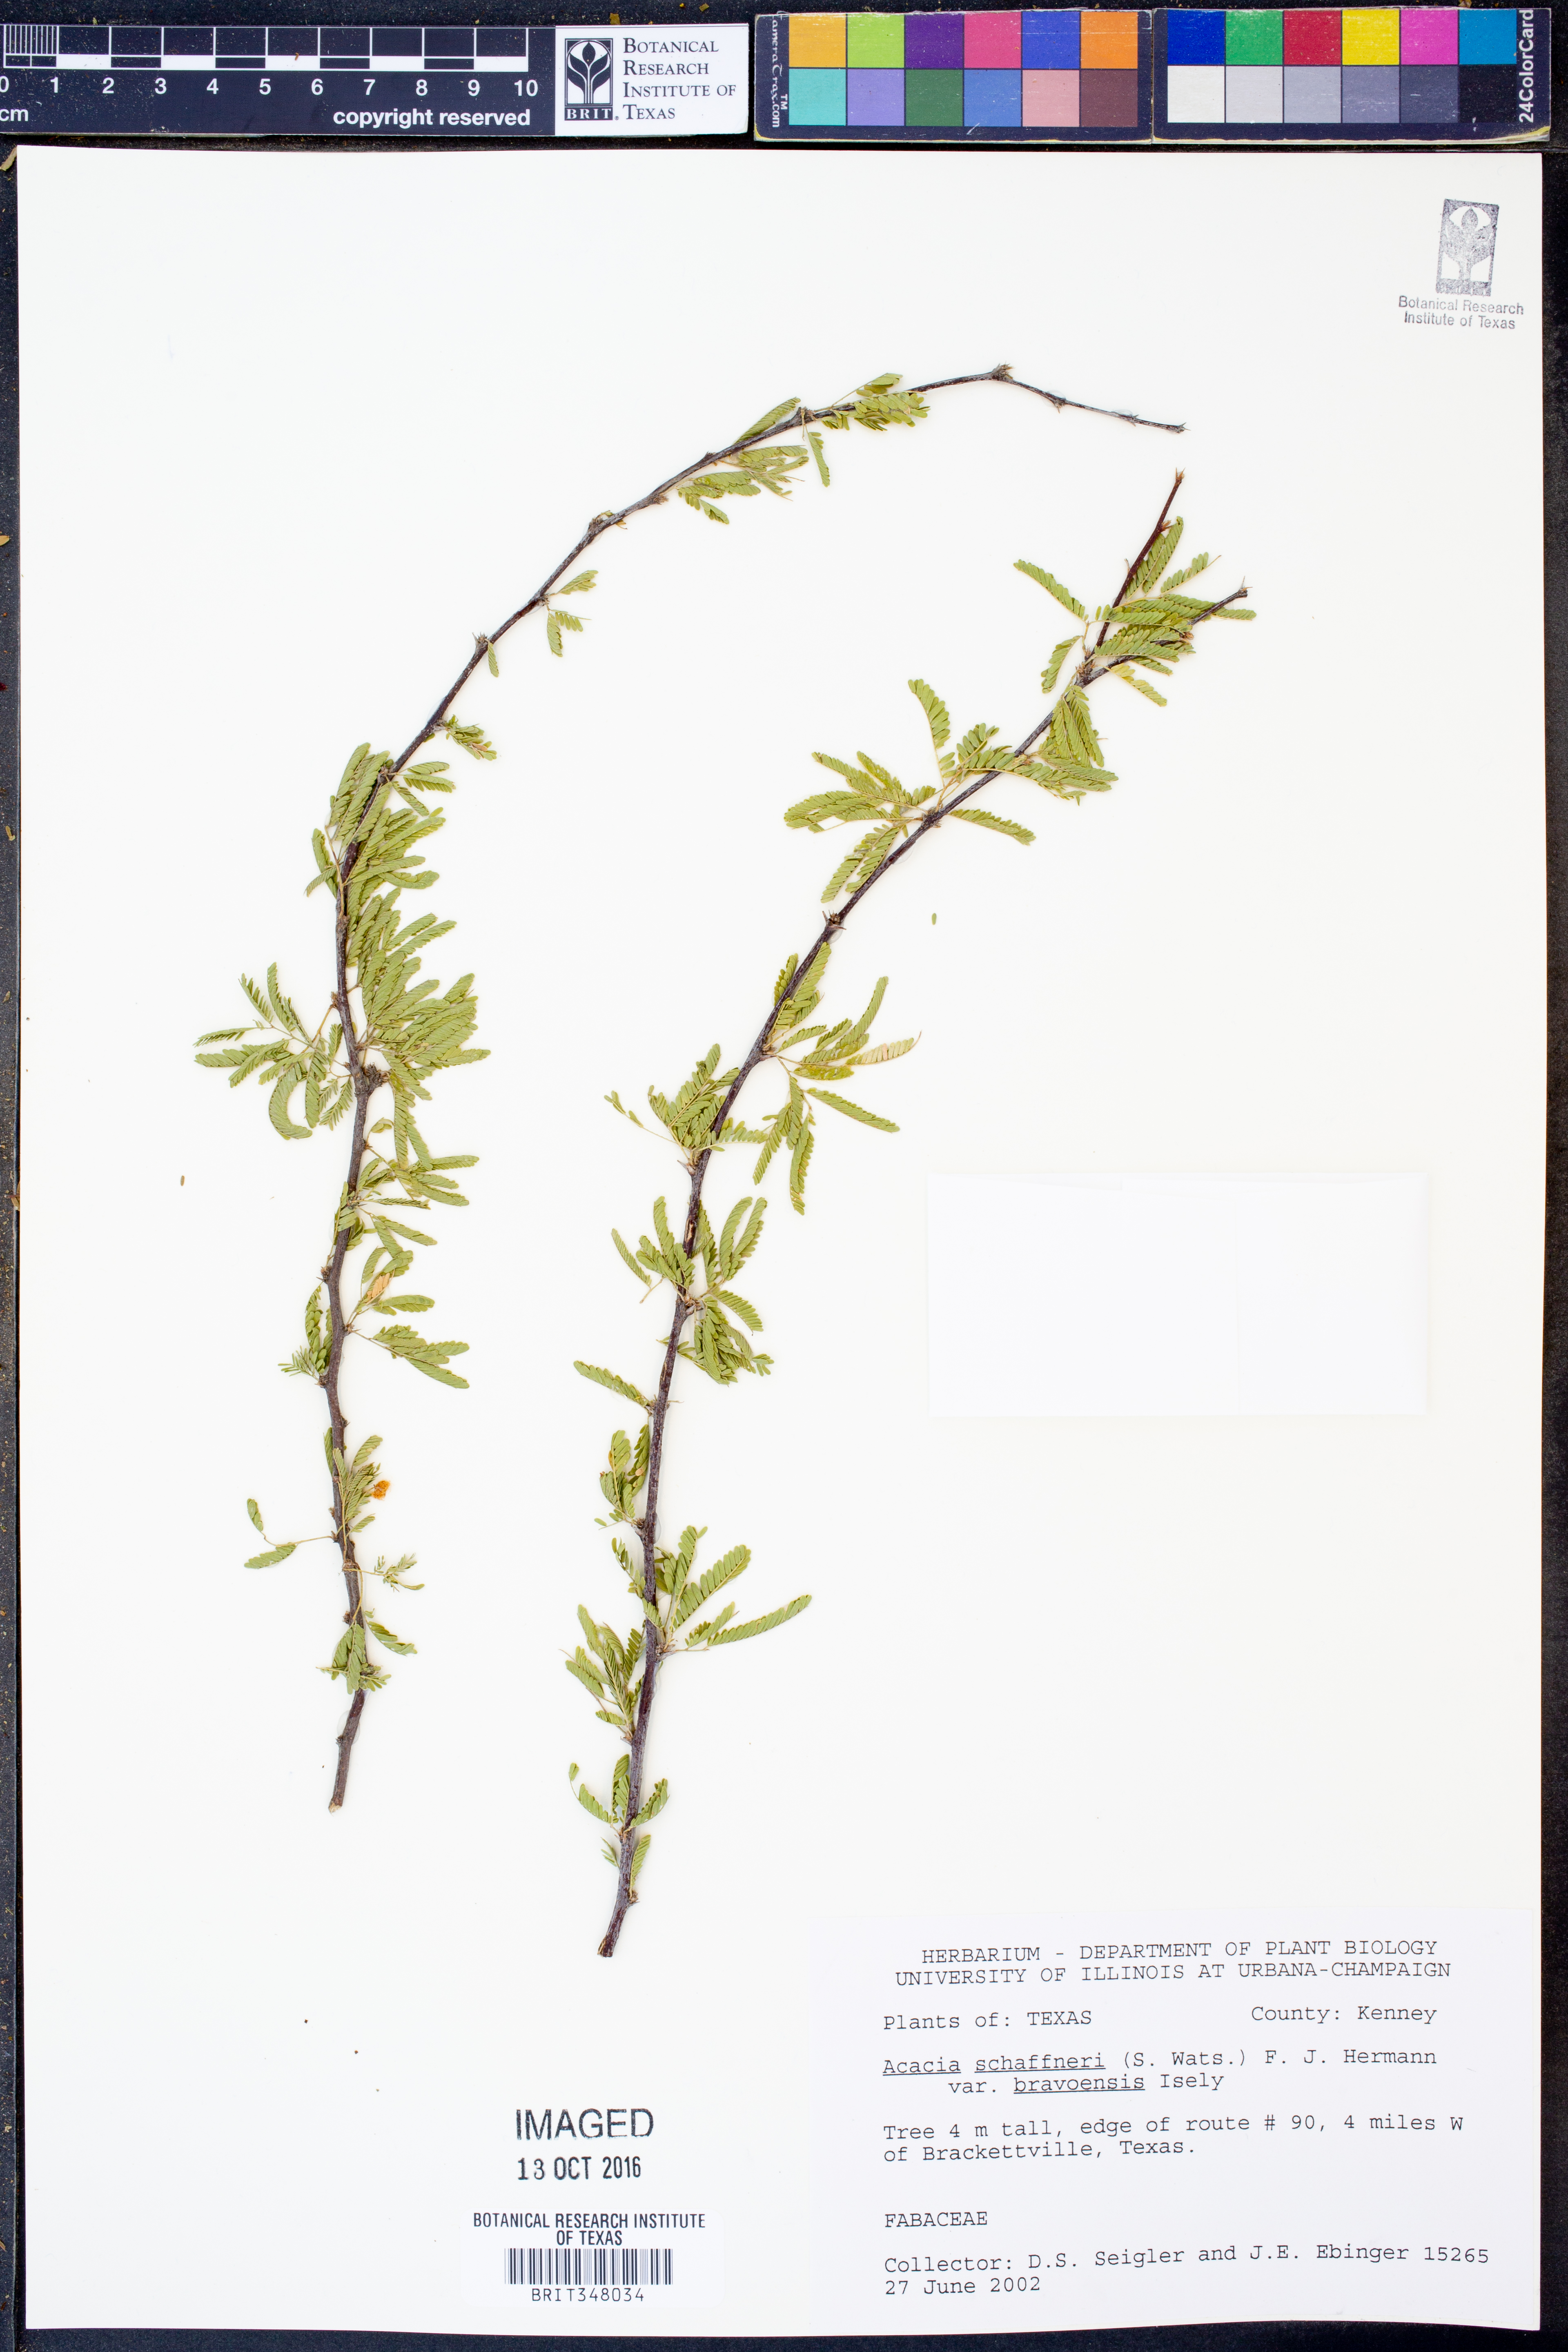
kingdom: Plantae
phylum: Tracheophyta
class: Magnoliopsida
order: Fabales
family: Fabaceae
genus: Vachellia
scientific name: Vachellia bravoensis
